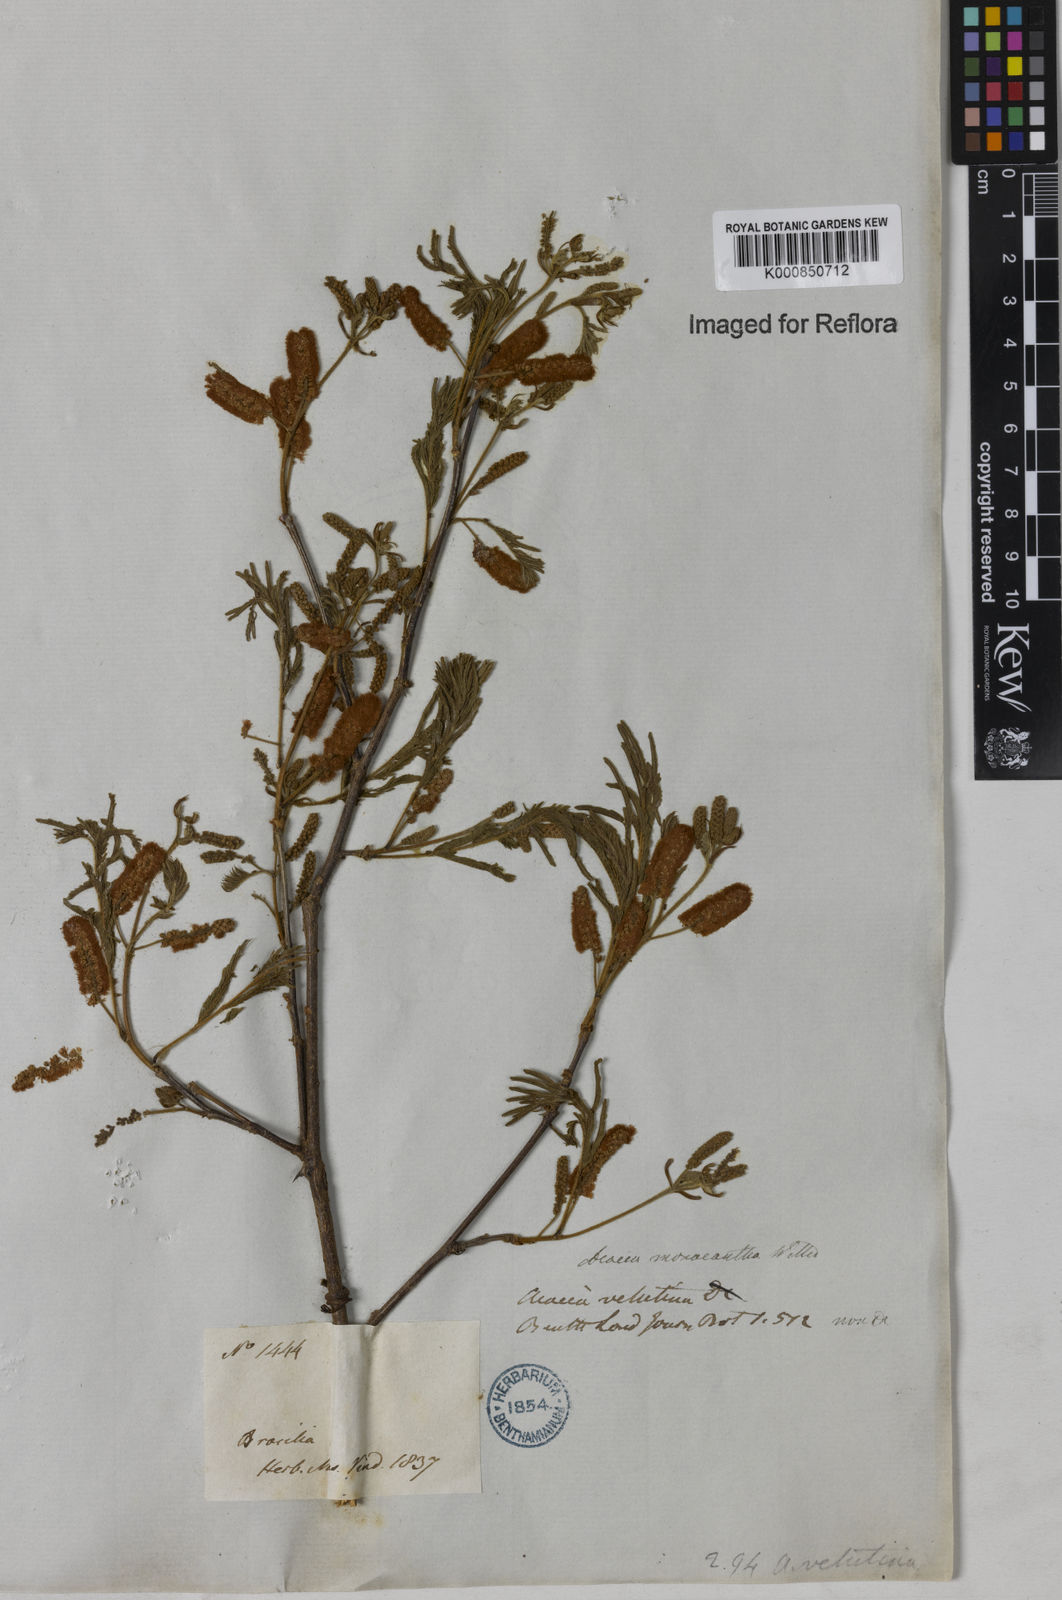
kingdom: Plantae
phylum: Tracheophyta
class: Magnoliopsida
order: Fabales
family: Fabaceae
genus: Senegalia
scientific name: Senegalia monacantha
